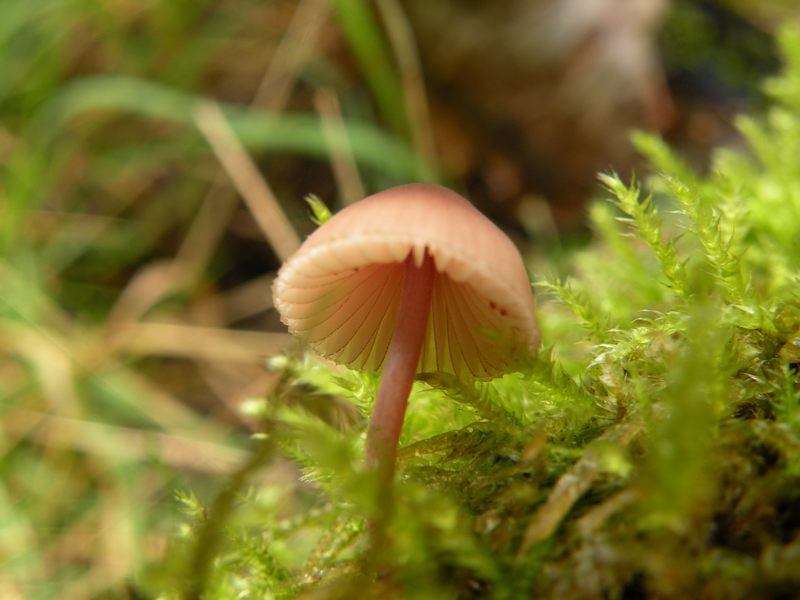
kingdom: Fungi
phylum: Basidiomycota
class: Agaricomycetes
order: Agaricales
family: Mycenaceae
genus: Mycena
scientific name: Mycena sanguinolenta
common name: rødmælket huesvamp
